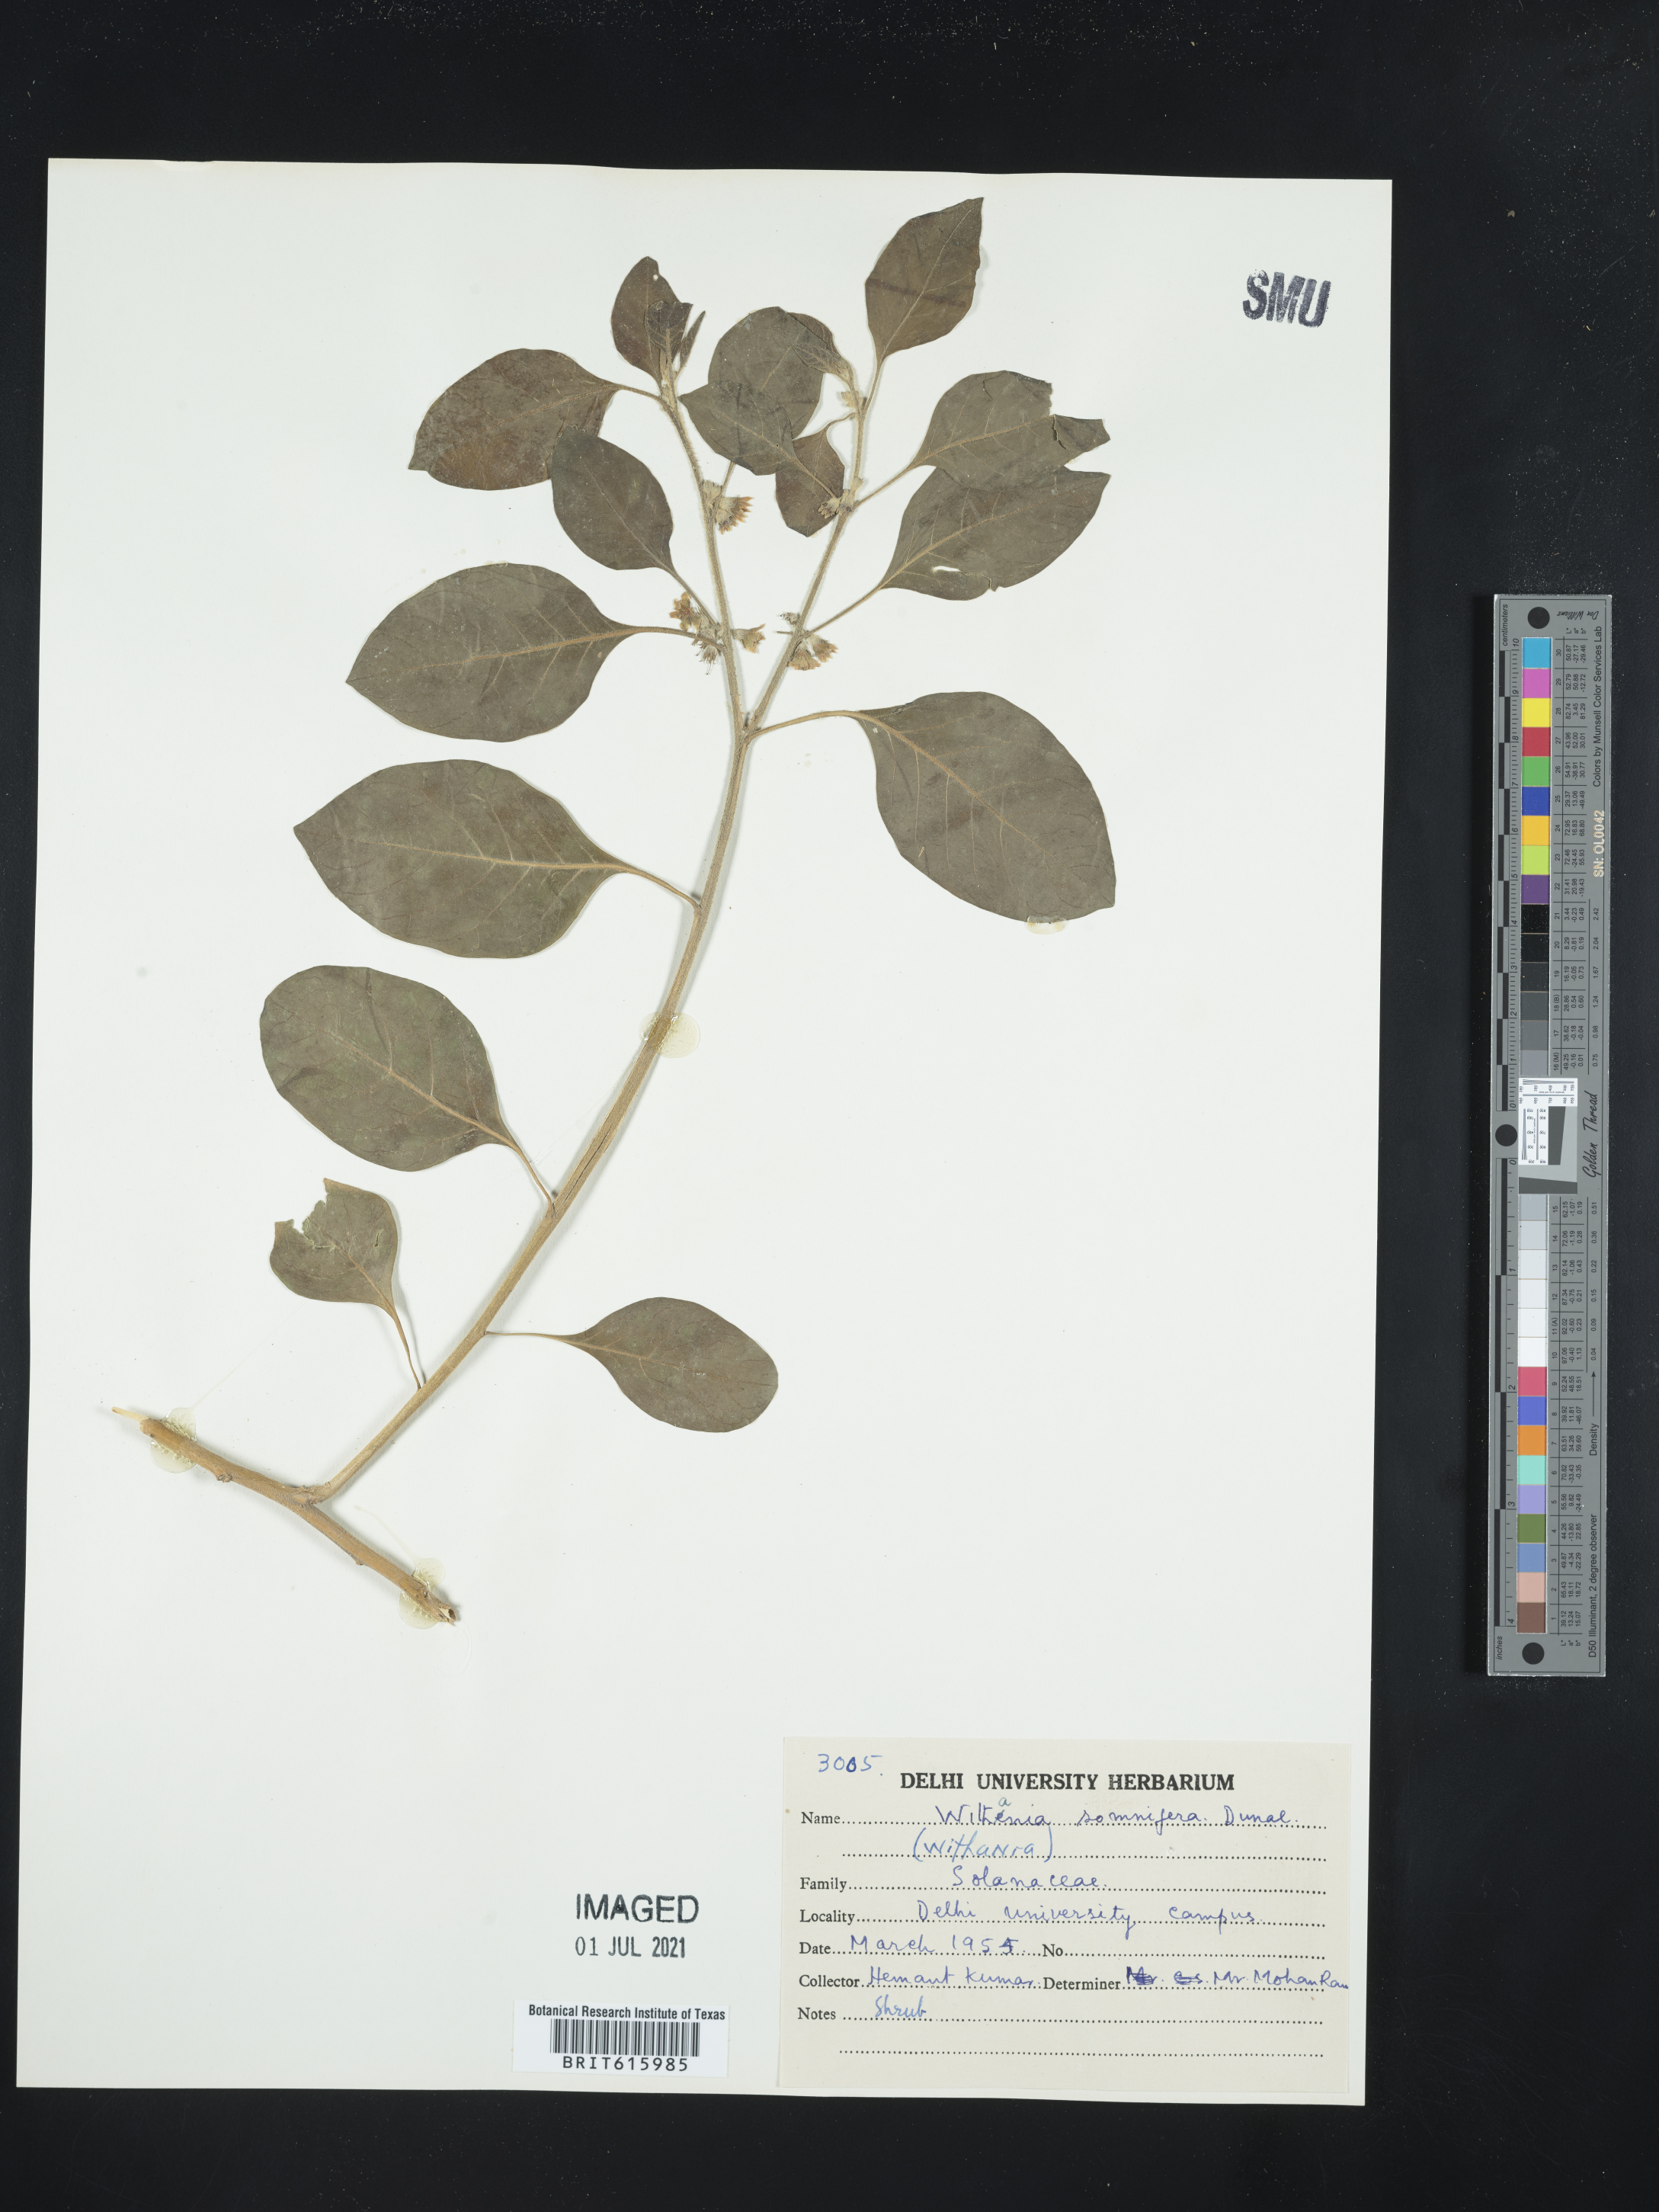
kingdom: Plantae
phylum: Tracheophyta
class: Magnoliopsida
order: Solanales
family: Solanaceae
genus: Withania
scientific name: Withania somnifera
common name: Winter-cherry
